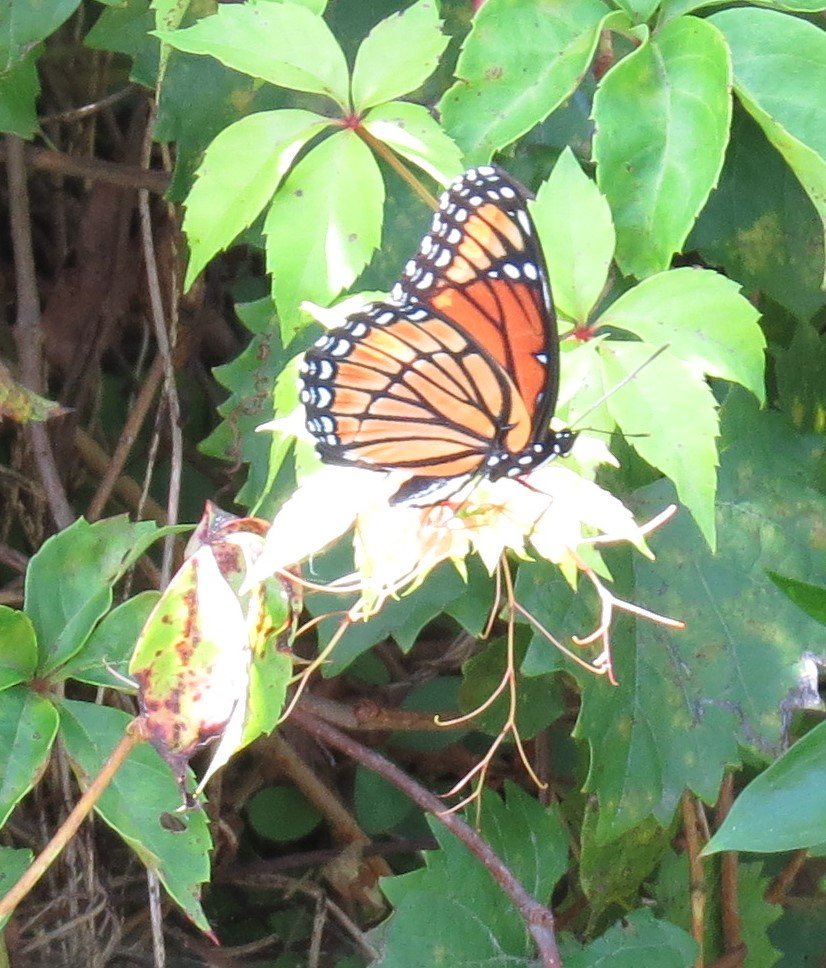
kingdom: Animalia
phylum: Arthropoda
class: Insecta
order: Lepidoptera
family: Nymphalidae
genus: Limenitis
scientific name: Limenitis archippus
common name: Viceroy
